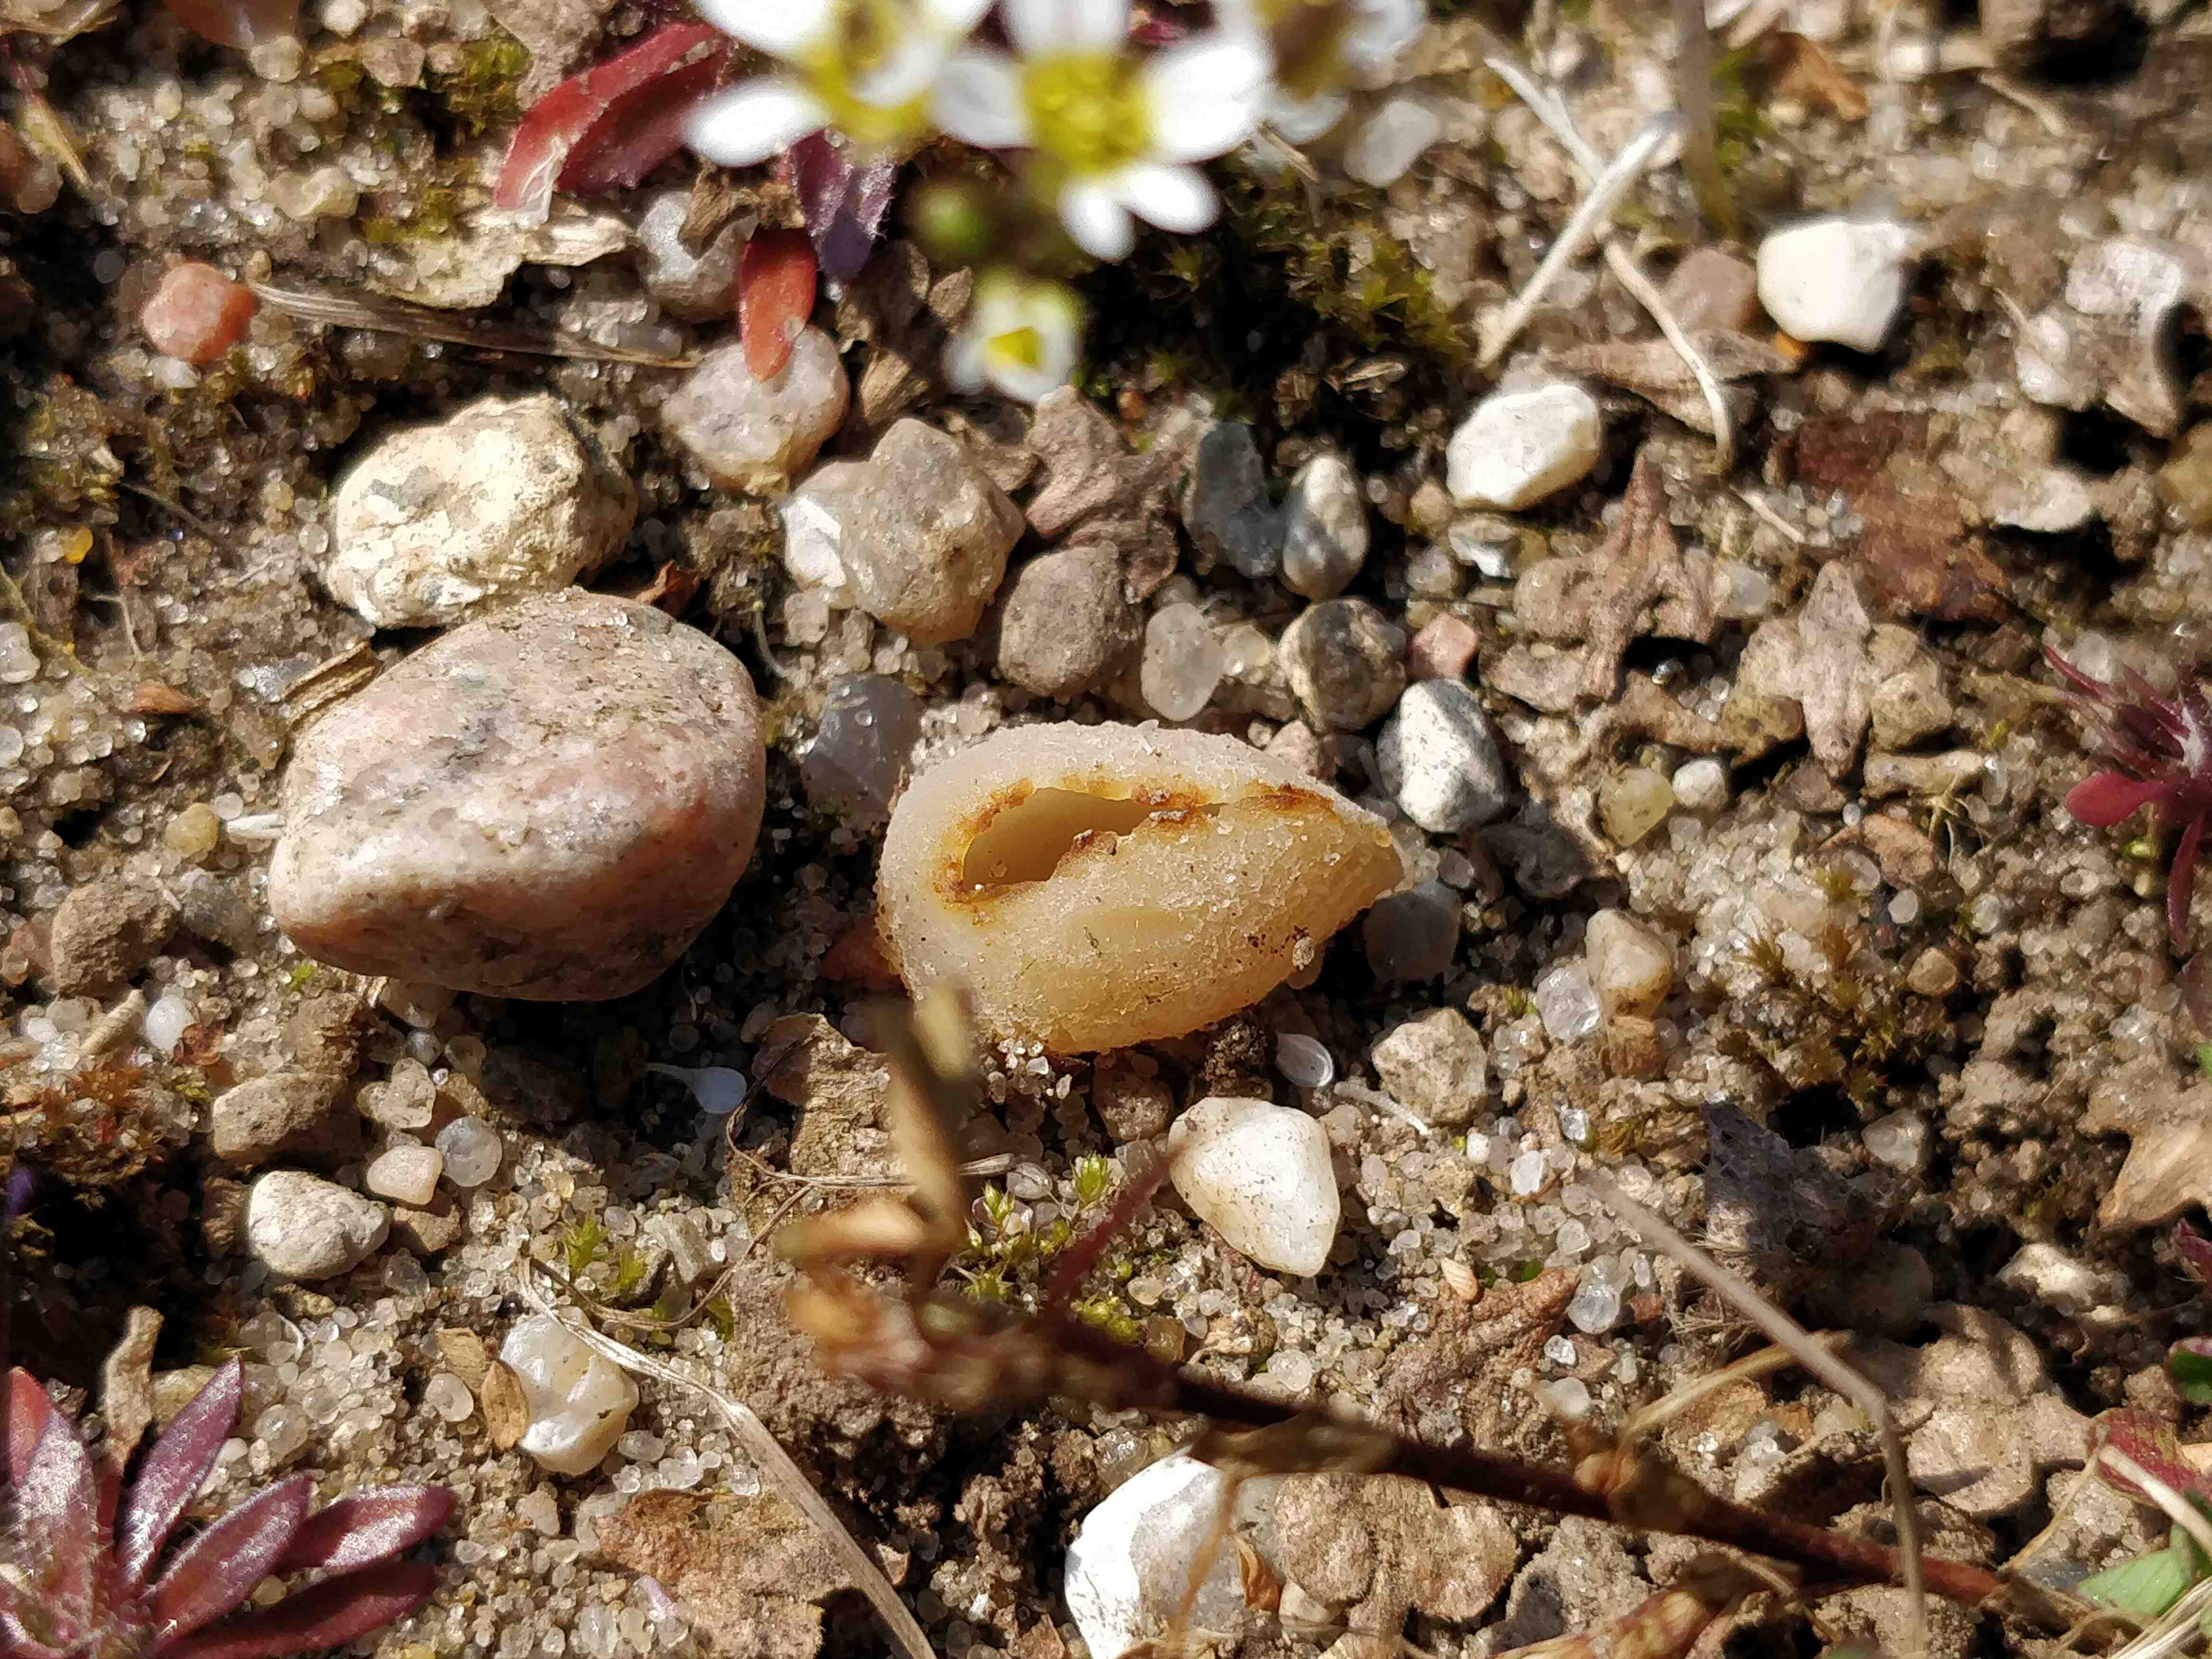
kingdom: Fungi
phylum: Ascomycota
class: Pezizomycetes
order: Pezizales
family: Pezizaceae
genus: Peziza
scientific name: Peziza
